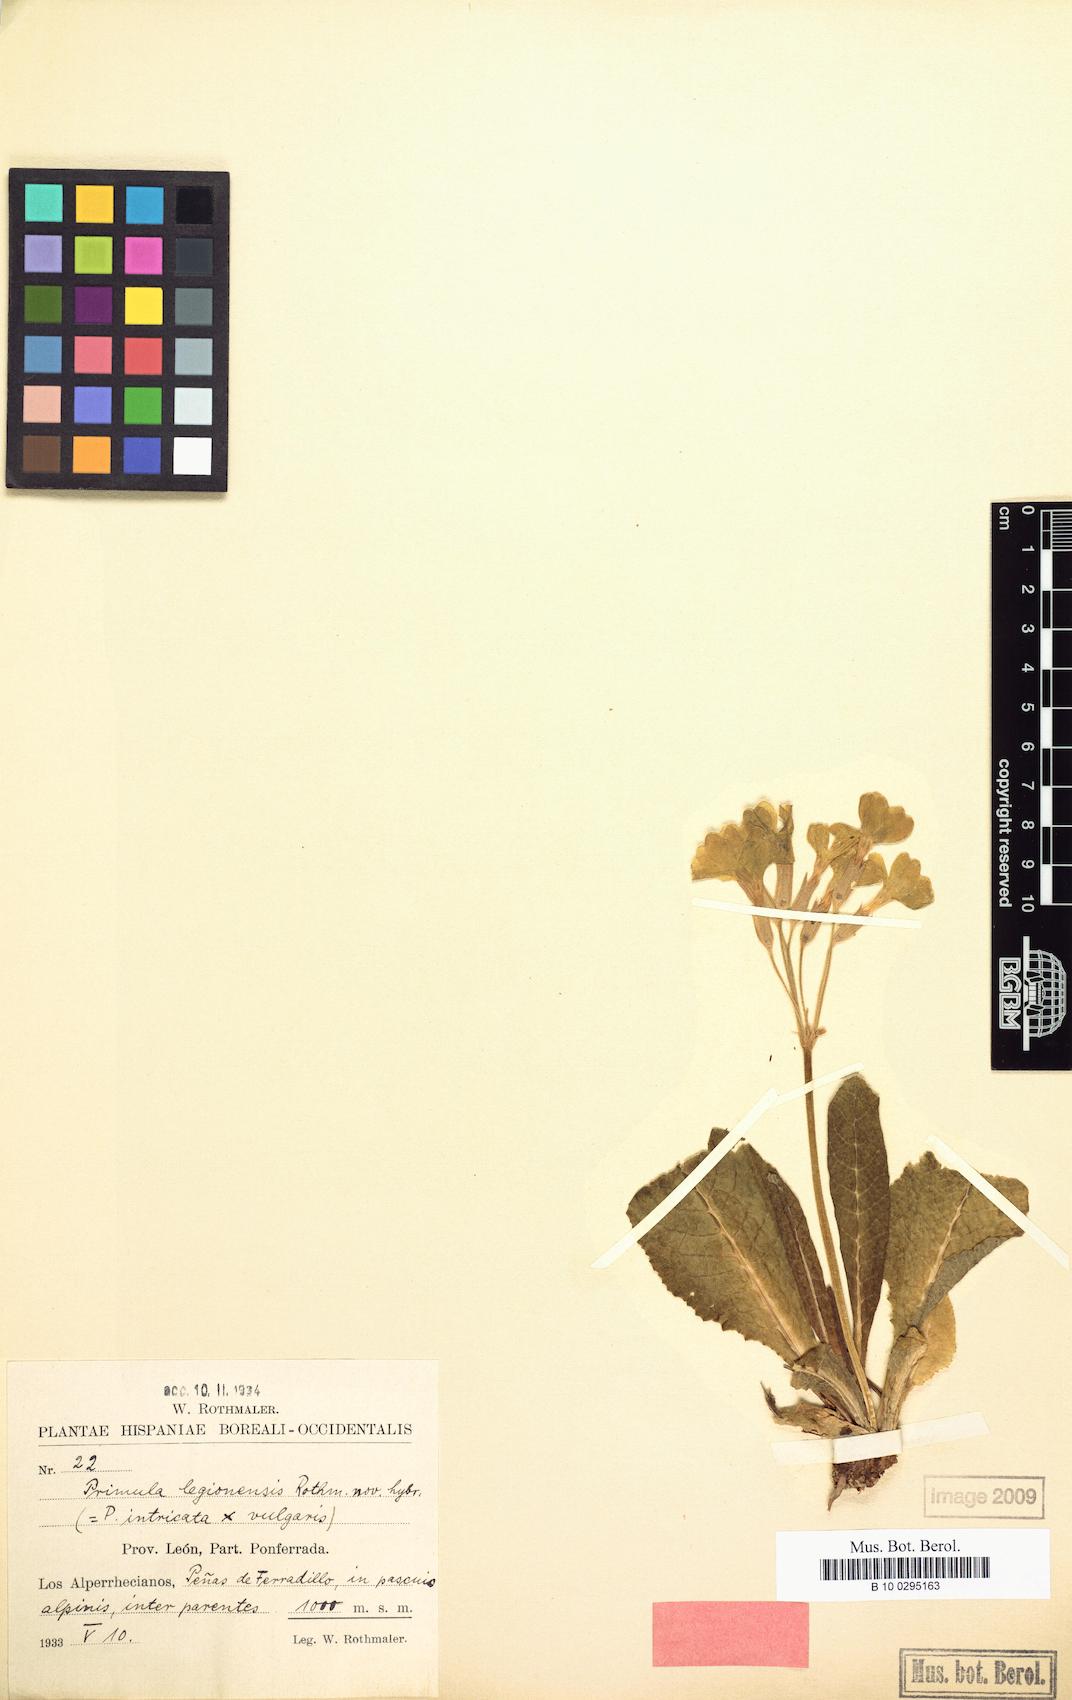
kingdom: Plantae
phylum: Tracheophyta
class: Magnoliopsida
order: Ericales
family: Primulaceae
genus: Primula
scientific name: Primula digenea
